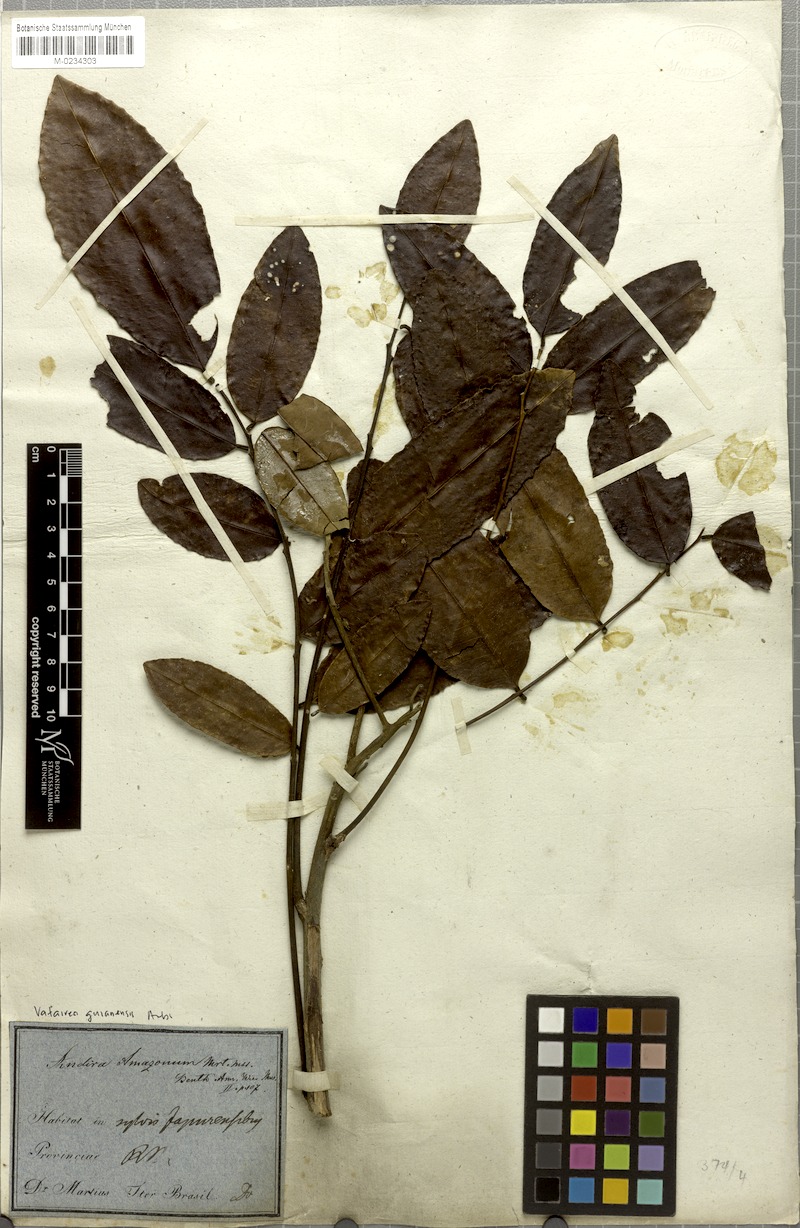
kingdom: Plantae
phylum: Tracheophyta
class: Magnoliopsida
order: Fabales
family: Fabaceae
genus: Vatairea
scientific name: Vatairea guianensis
